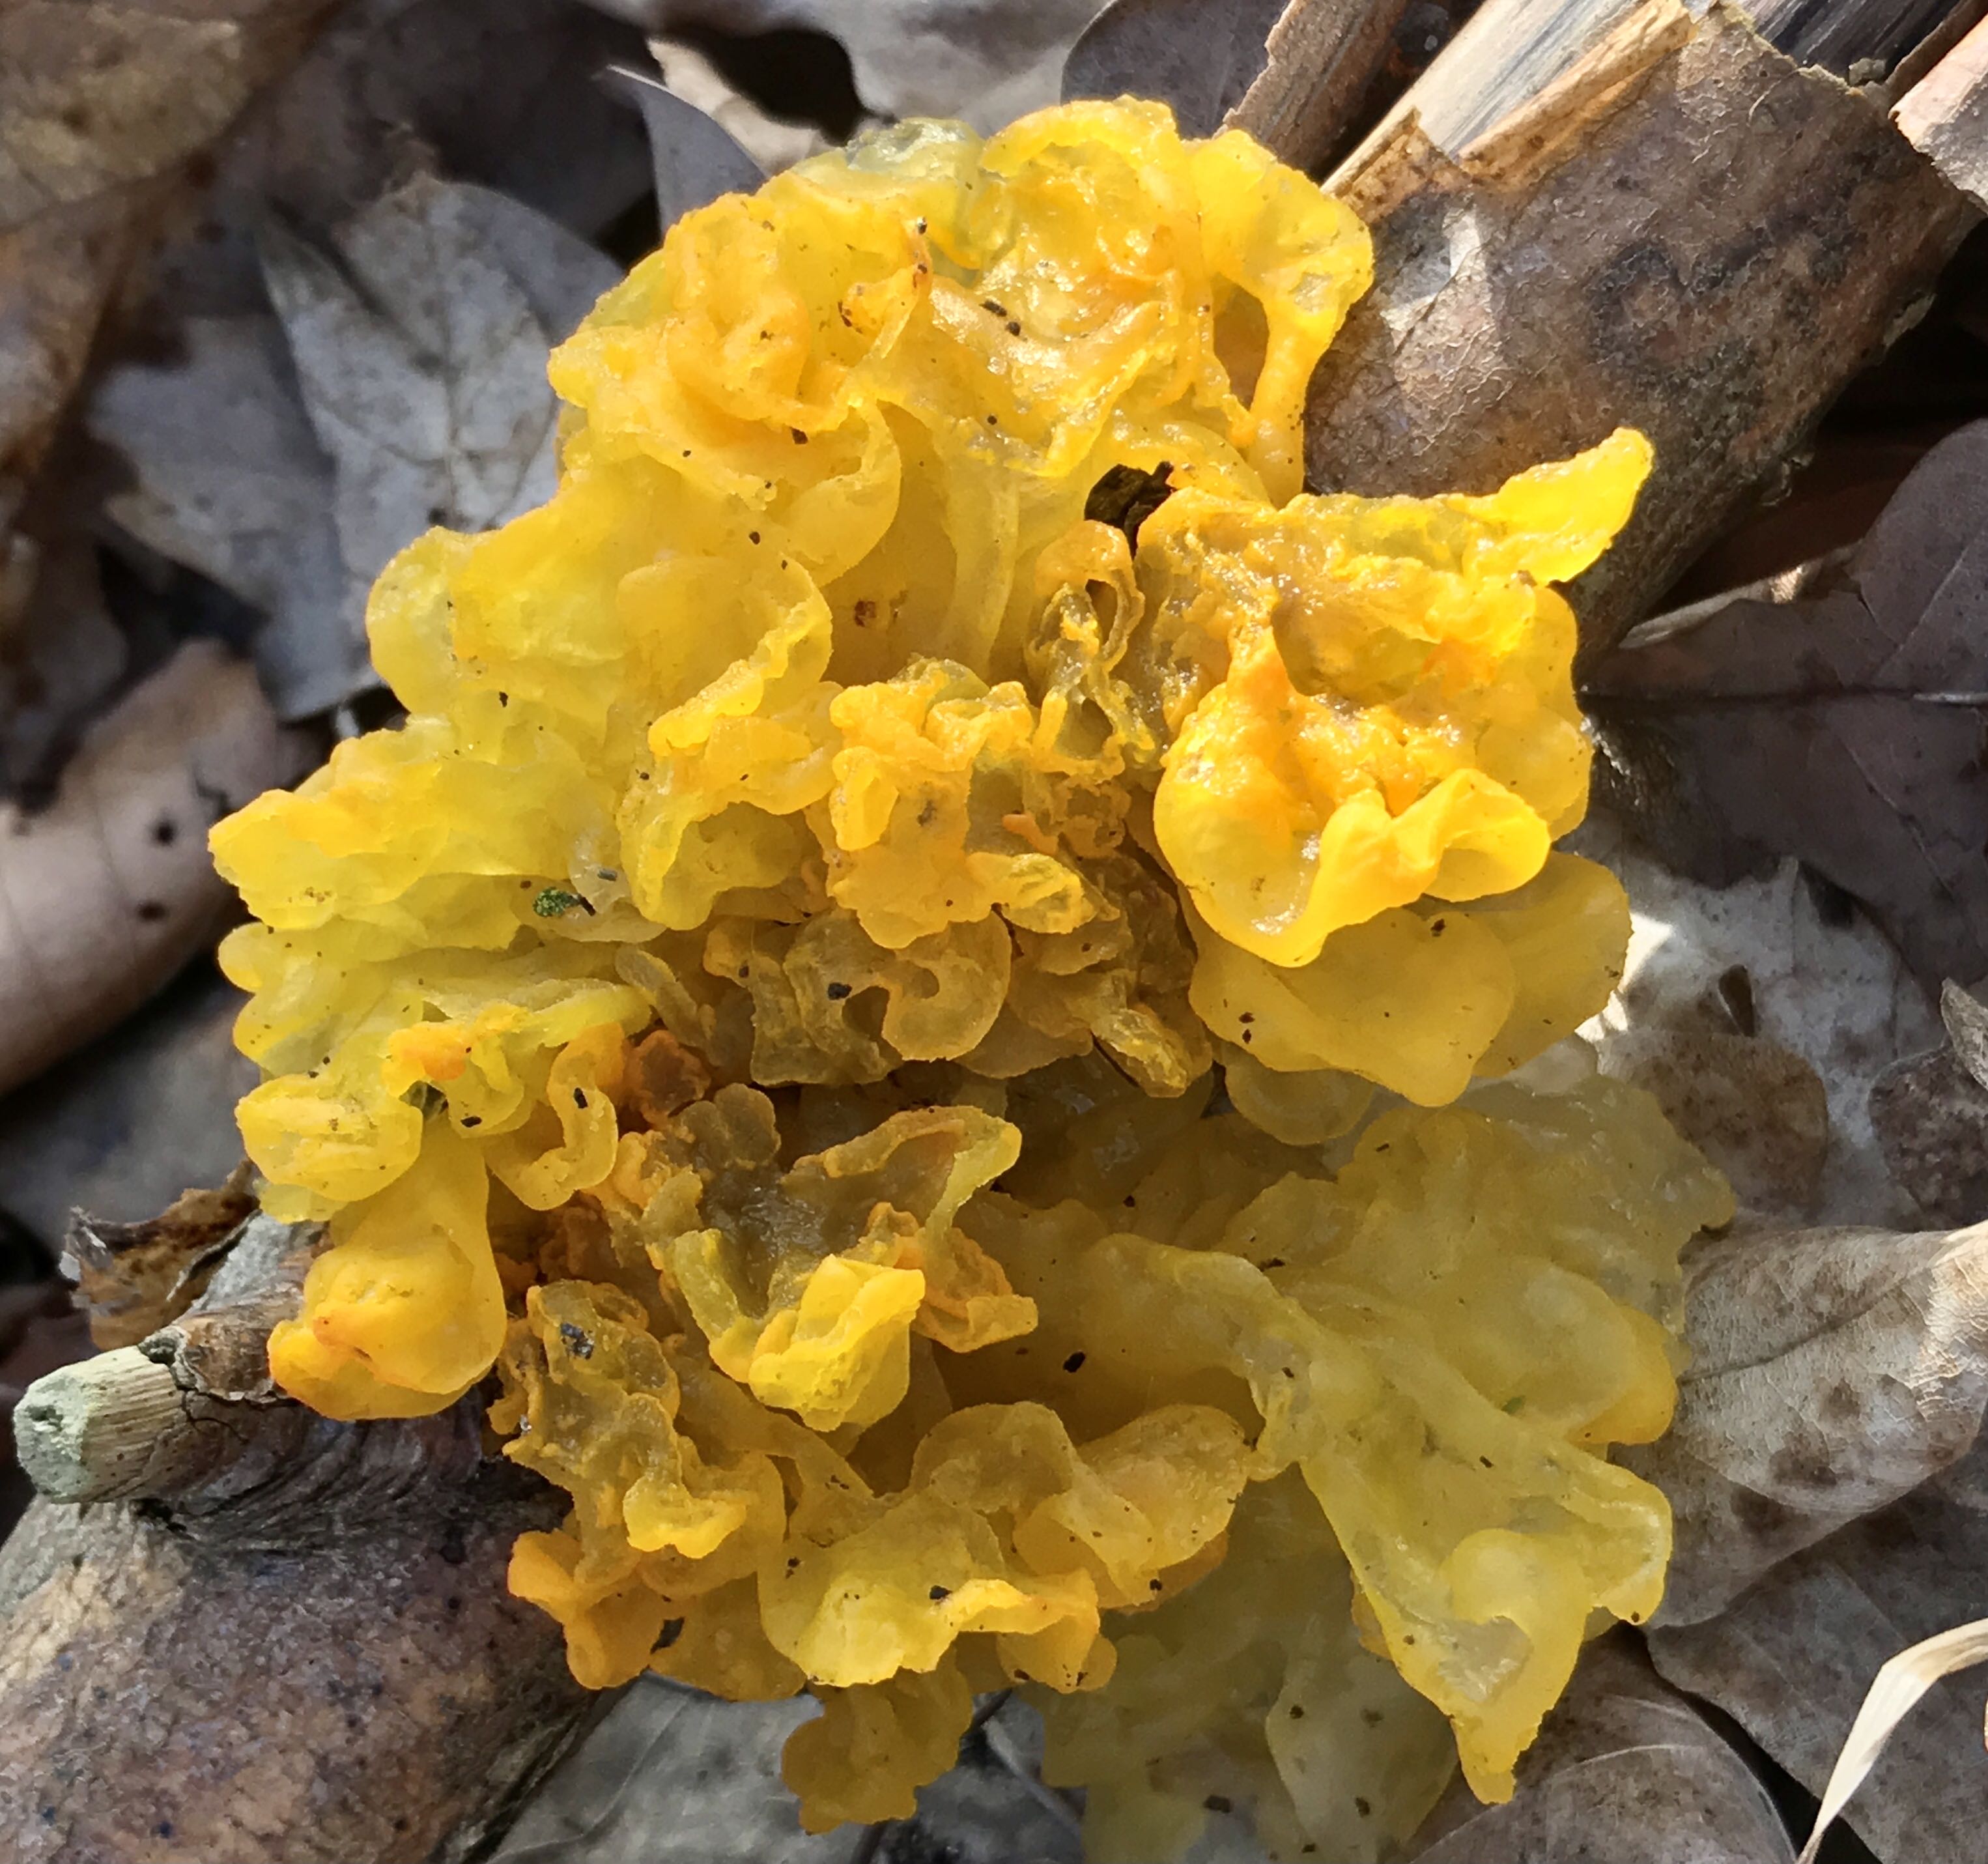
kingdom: Fungi
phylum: Basidiomycota
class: Tremellomycetes
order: Tremellales
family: Tremellaceae
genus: Tremella
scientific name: Tremella mesenterica
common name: gul bævresvamp
